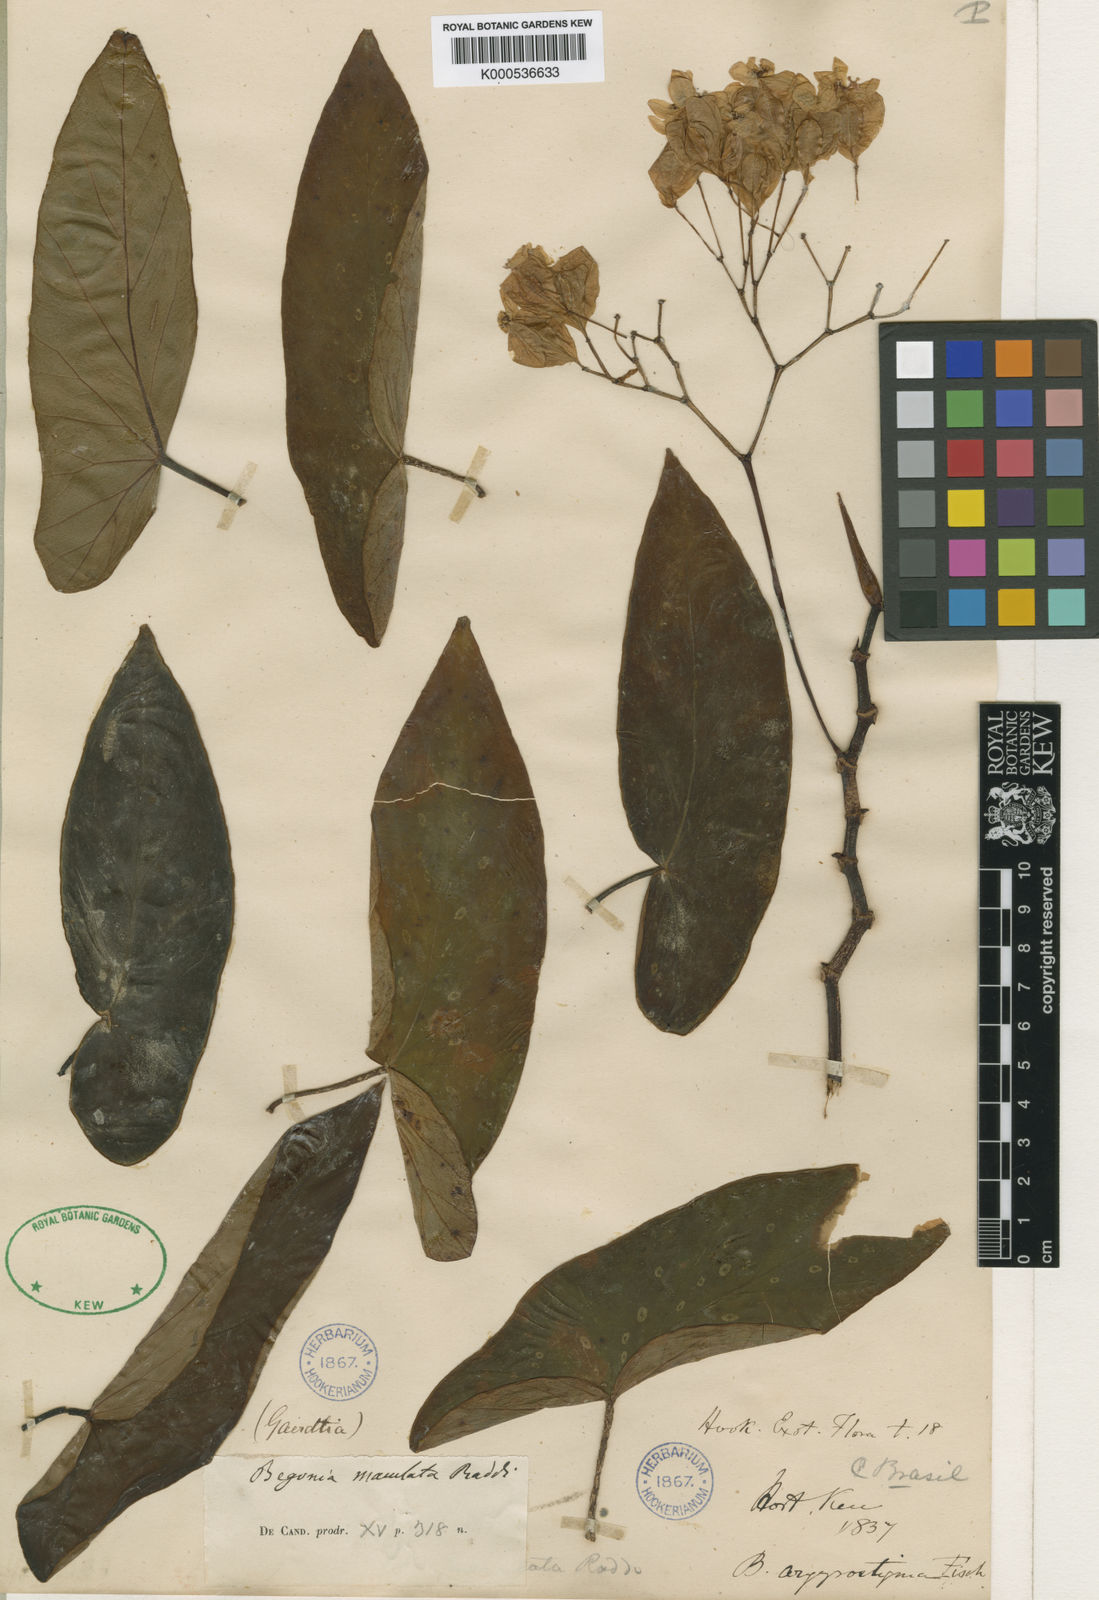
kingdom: Plantae
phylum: Tracheophyta
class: Magnoliopsida
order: Cucurbitales
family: Begoniaceae
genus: Begonia
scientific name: Begonia maculata
